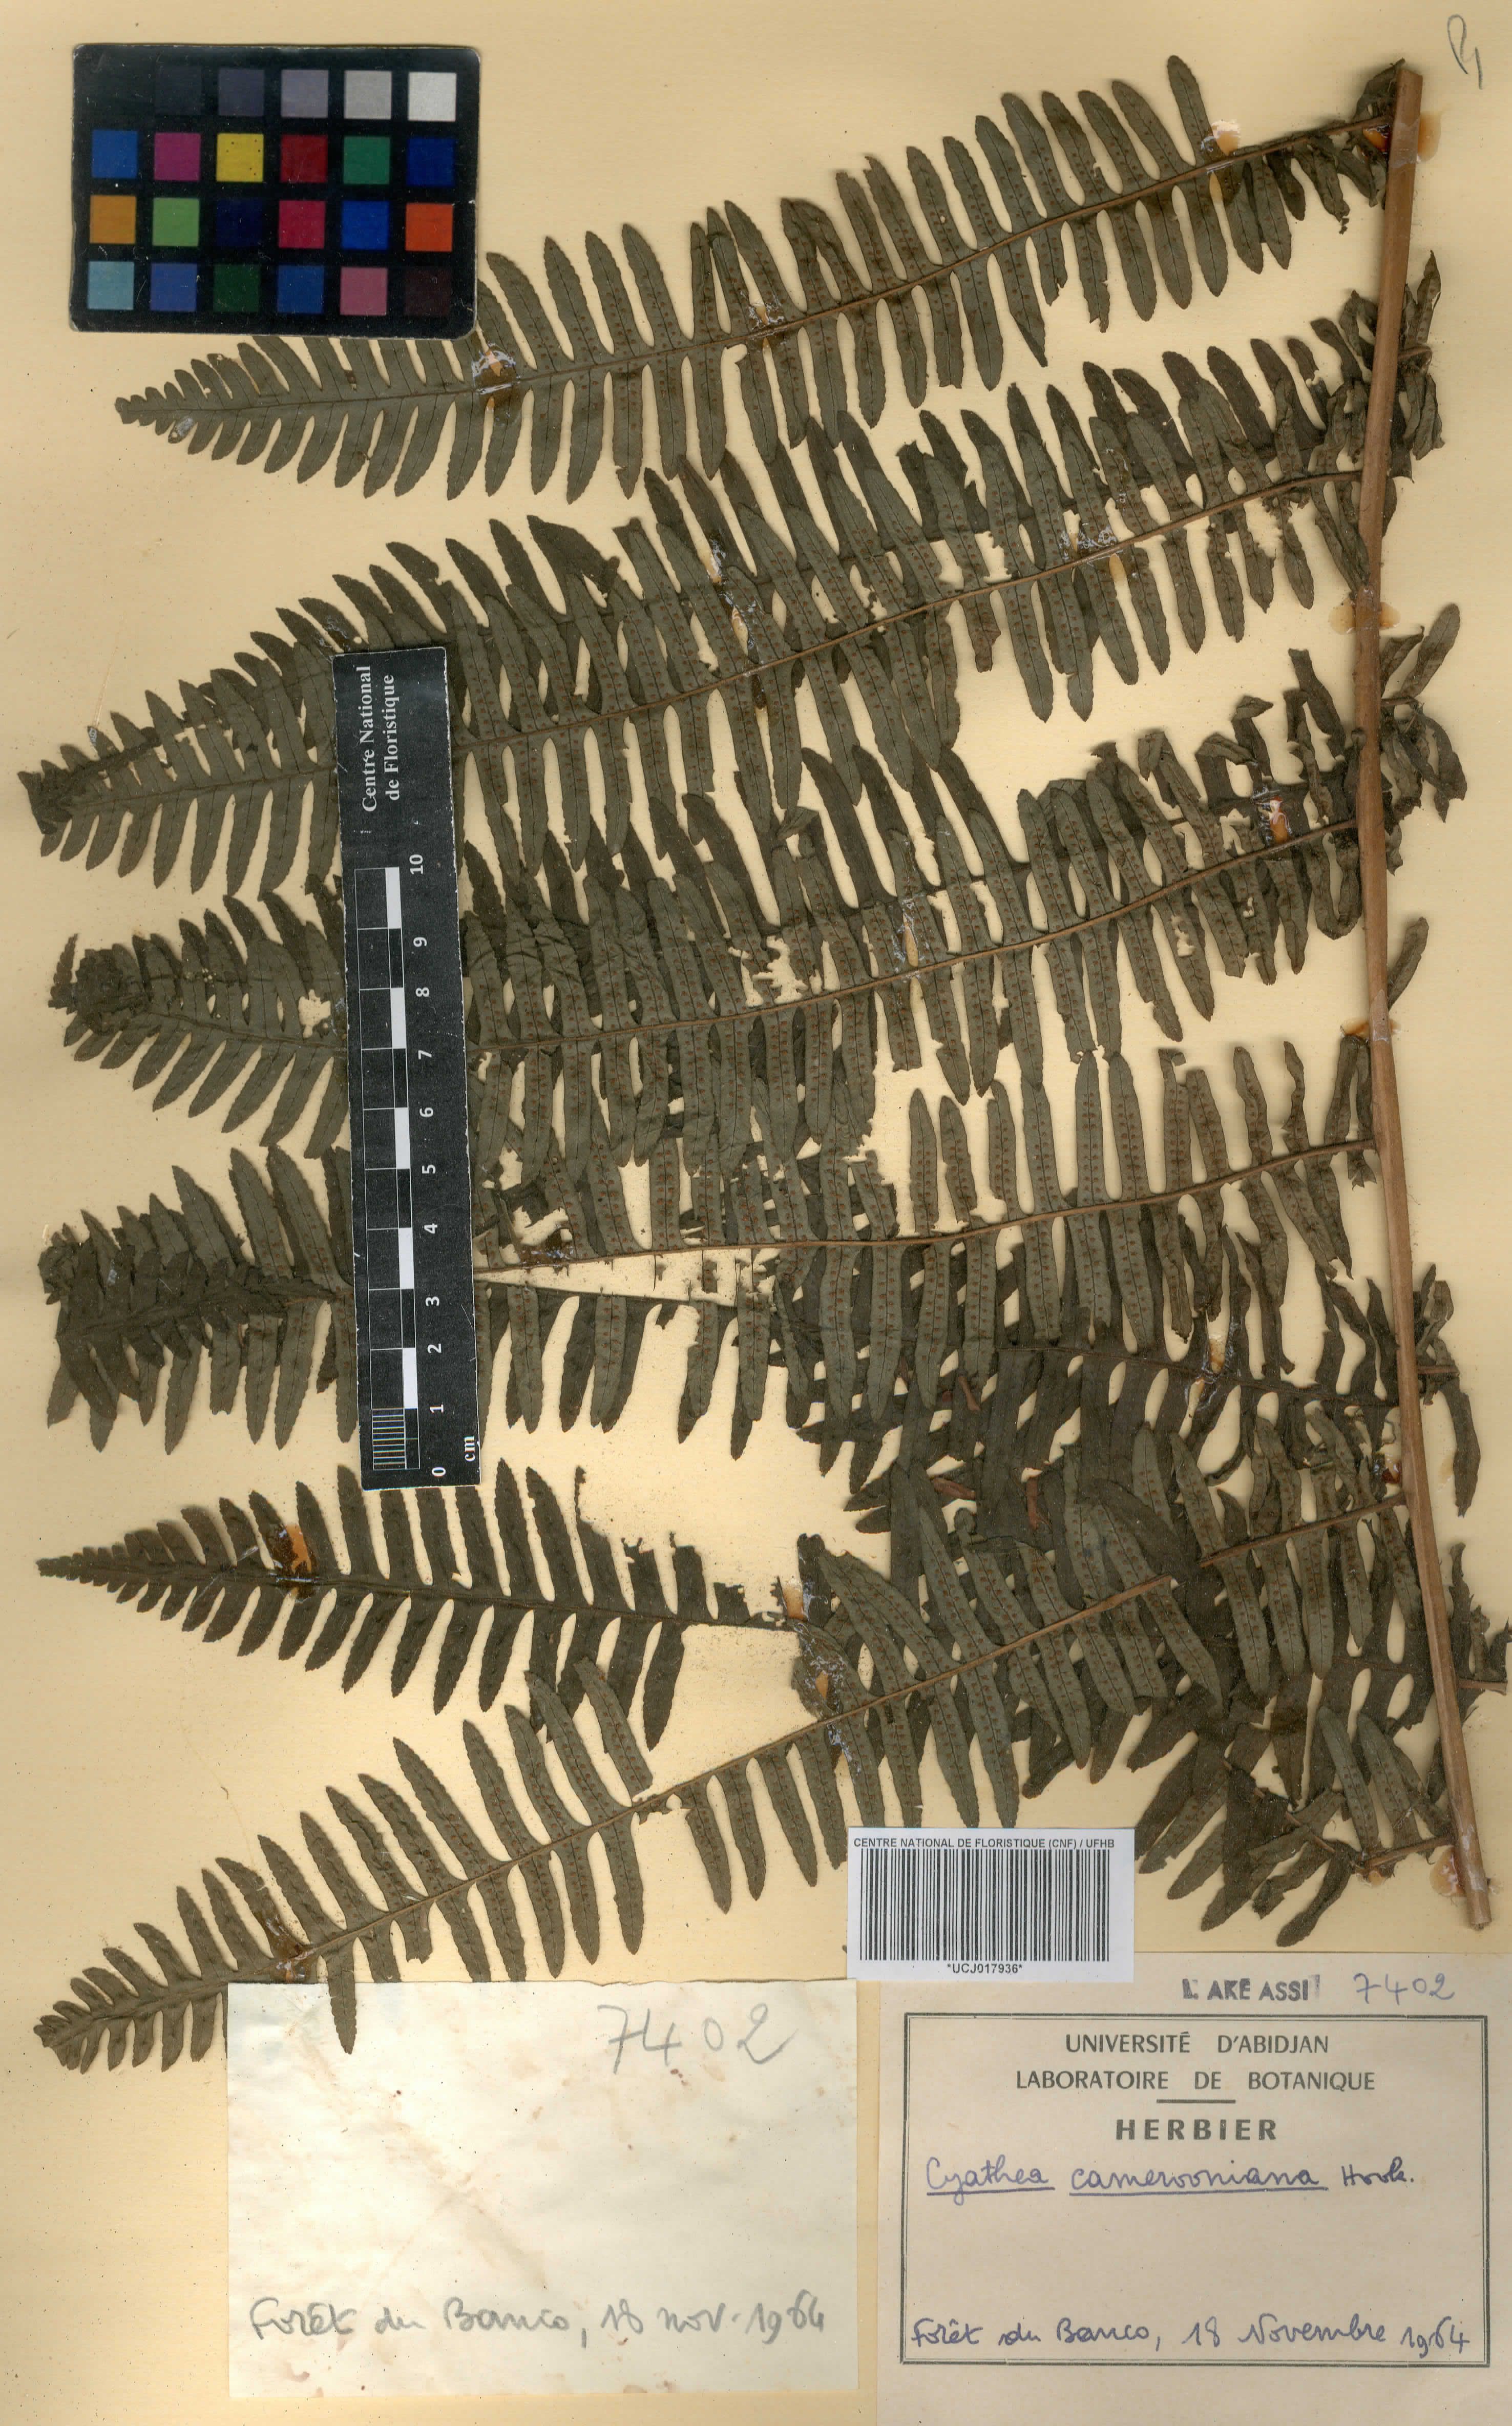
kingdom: Plantae
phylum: Tracheophyta
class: Polypodiopsida
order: Cyatheales
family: Cyatheaceae
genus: Alsophila
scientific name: Alsophila camerooniana
